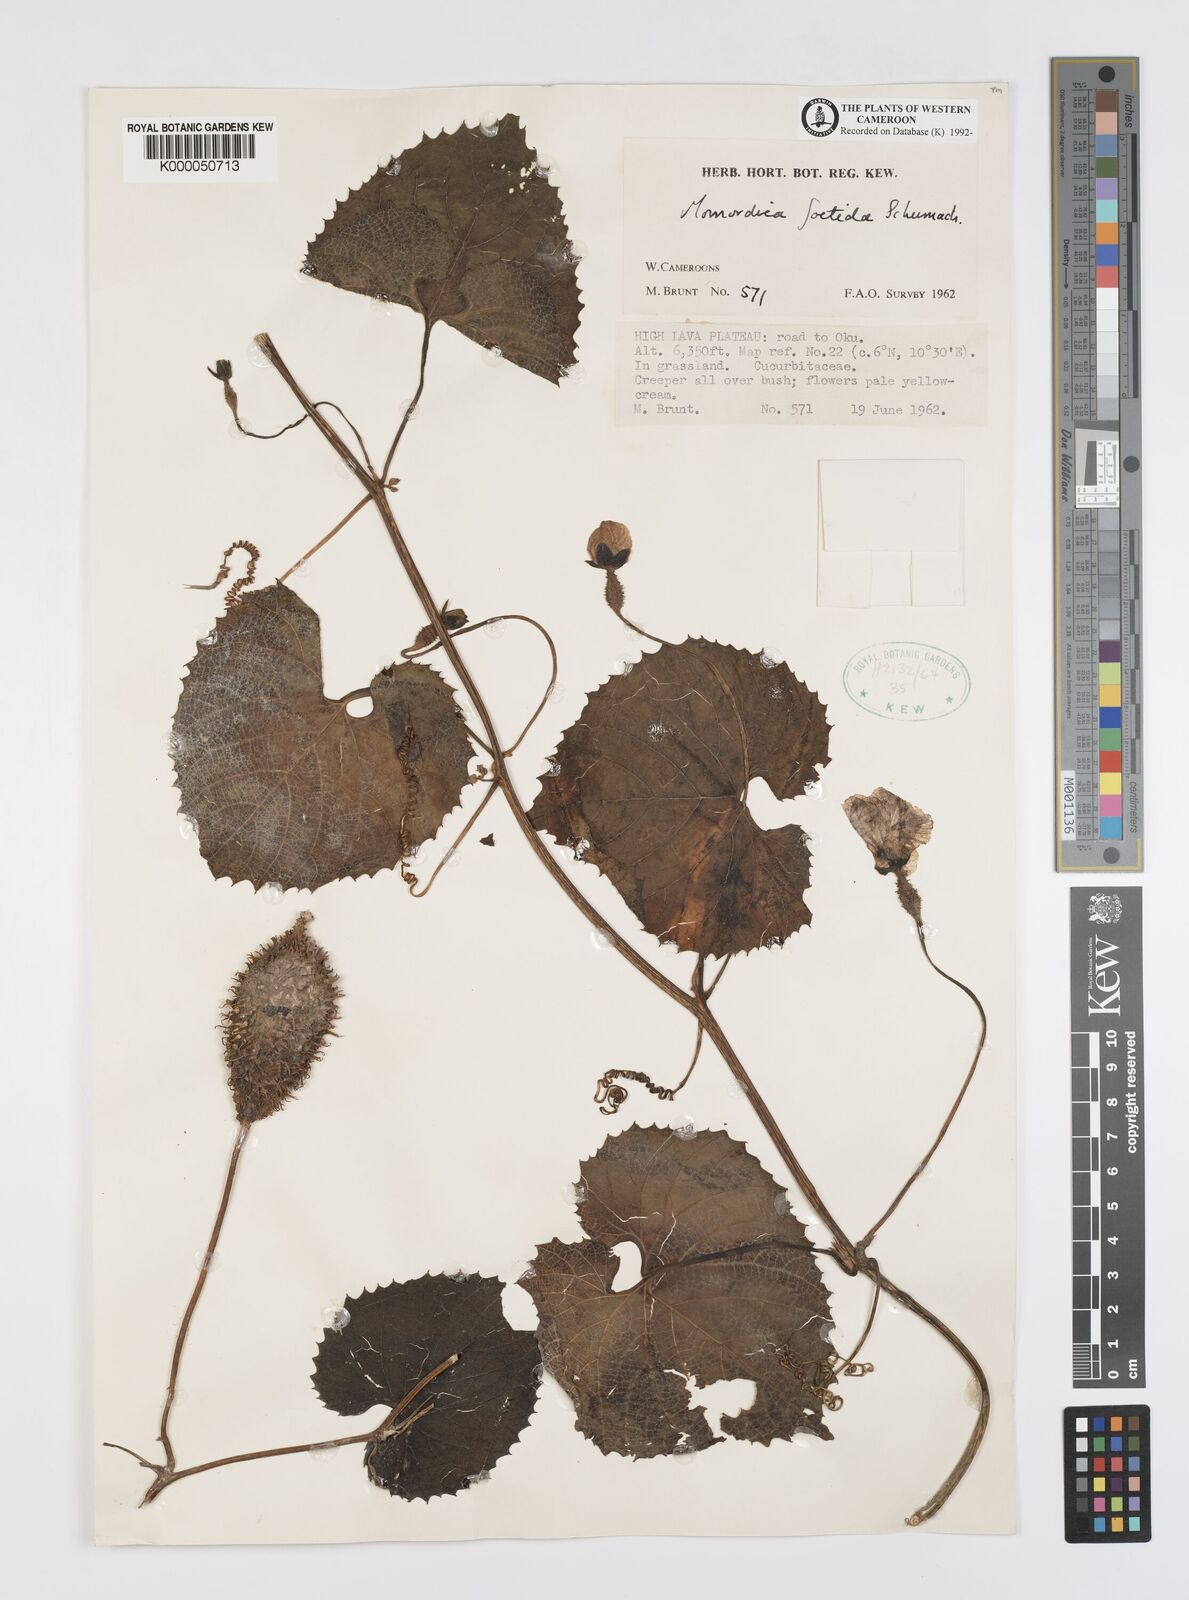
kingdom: Plantae
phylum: Tracheophyta
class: Magnoliopsida
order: Cucurbitales
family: Cucurbitaceae
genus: Momordica
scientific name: Momordica foetida
